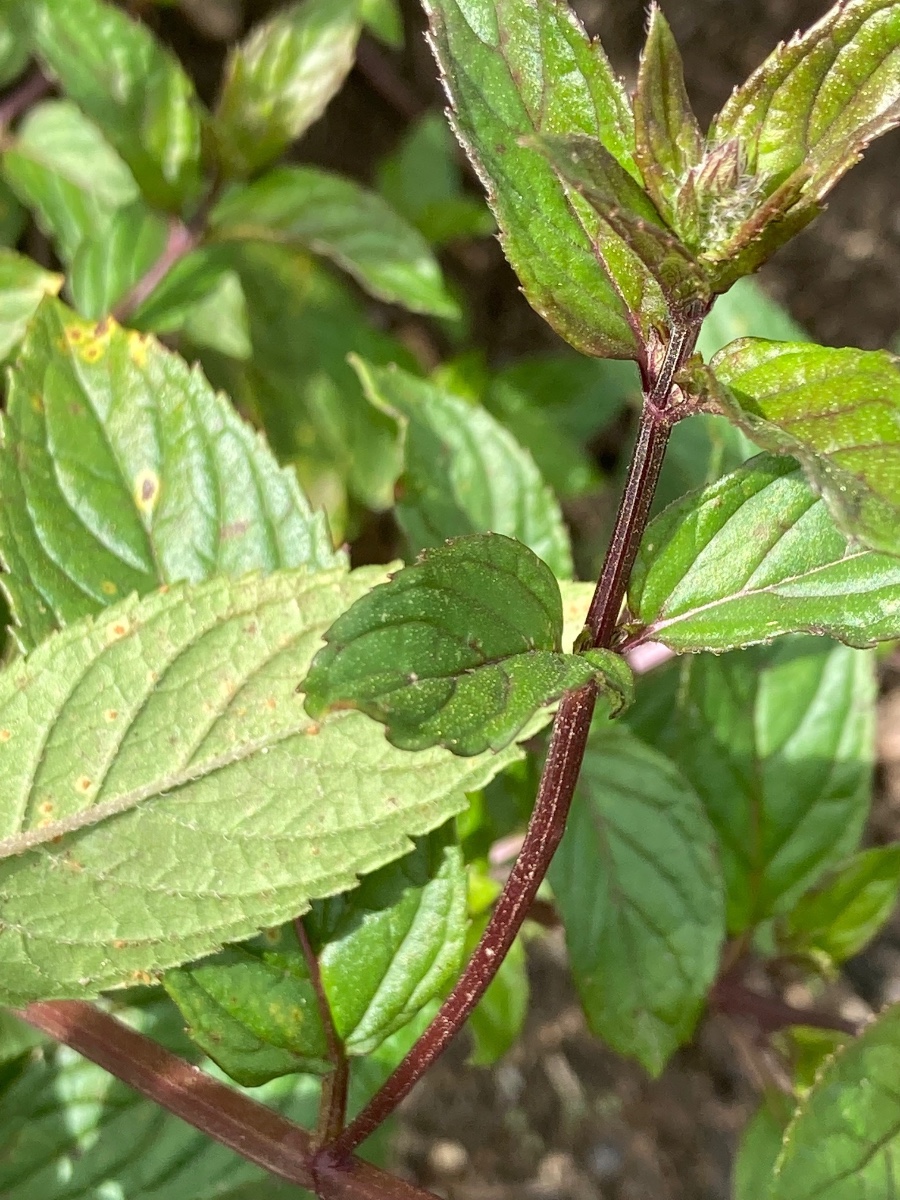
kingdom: Fungi
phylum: Basidiomycota
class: Pucciniomycetes
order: Pucciniales
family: Pucciniaceae
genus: Puccinia
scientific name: Puccinia menthae
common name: Mint rust
